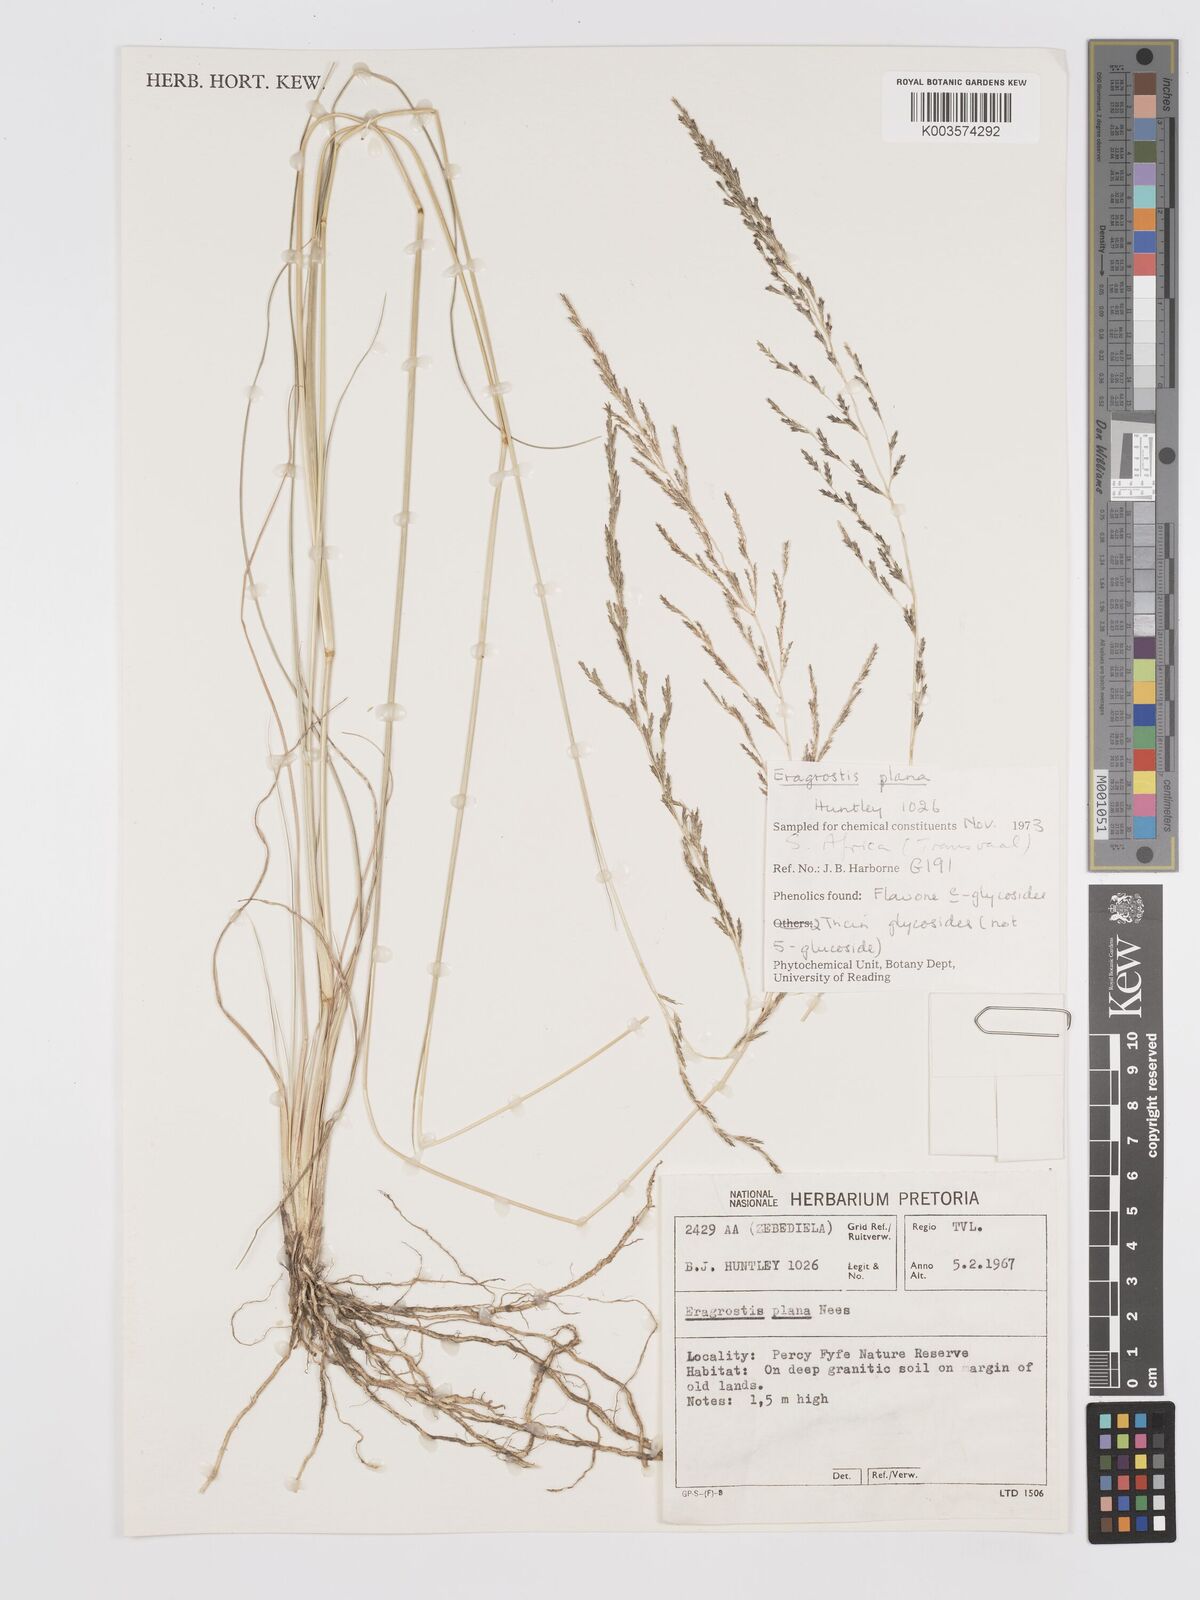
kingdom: Plantae
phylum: Tracheophyta
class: Liliopsida
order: Poales
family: Poaceae
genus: Eragrostis
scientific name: Eragrostis plana
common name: South african lovegrass
